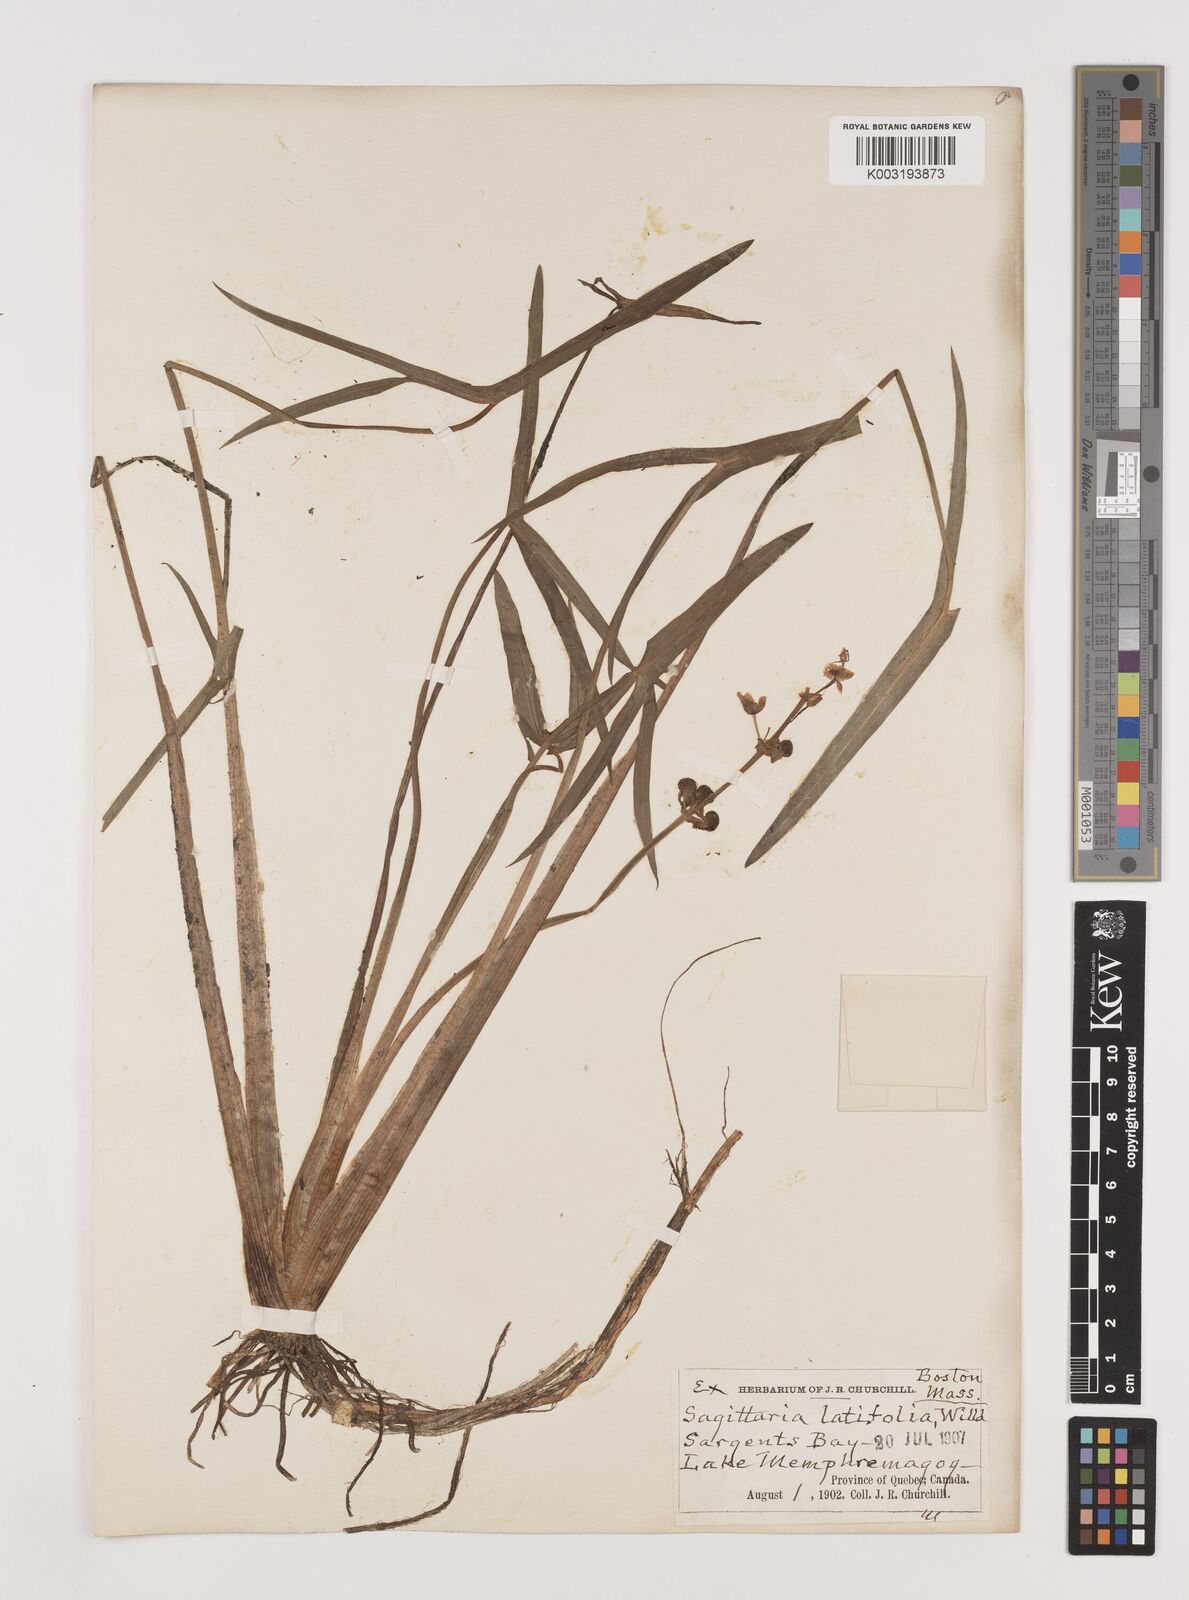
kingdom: Plantae
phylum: Tracheophyta
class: Liliopsida
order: Alismatales
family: Alismataceae
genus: Sagittaria
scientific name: Sagittaria latifolia
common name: Duck-potato
